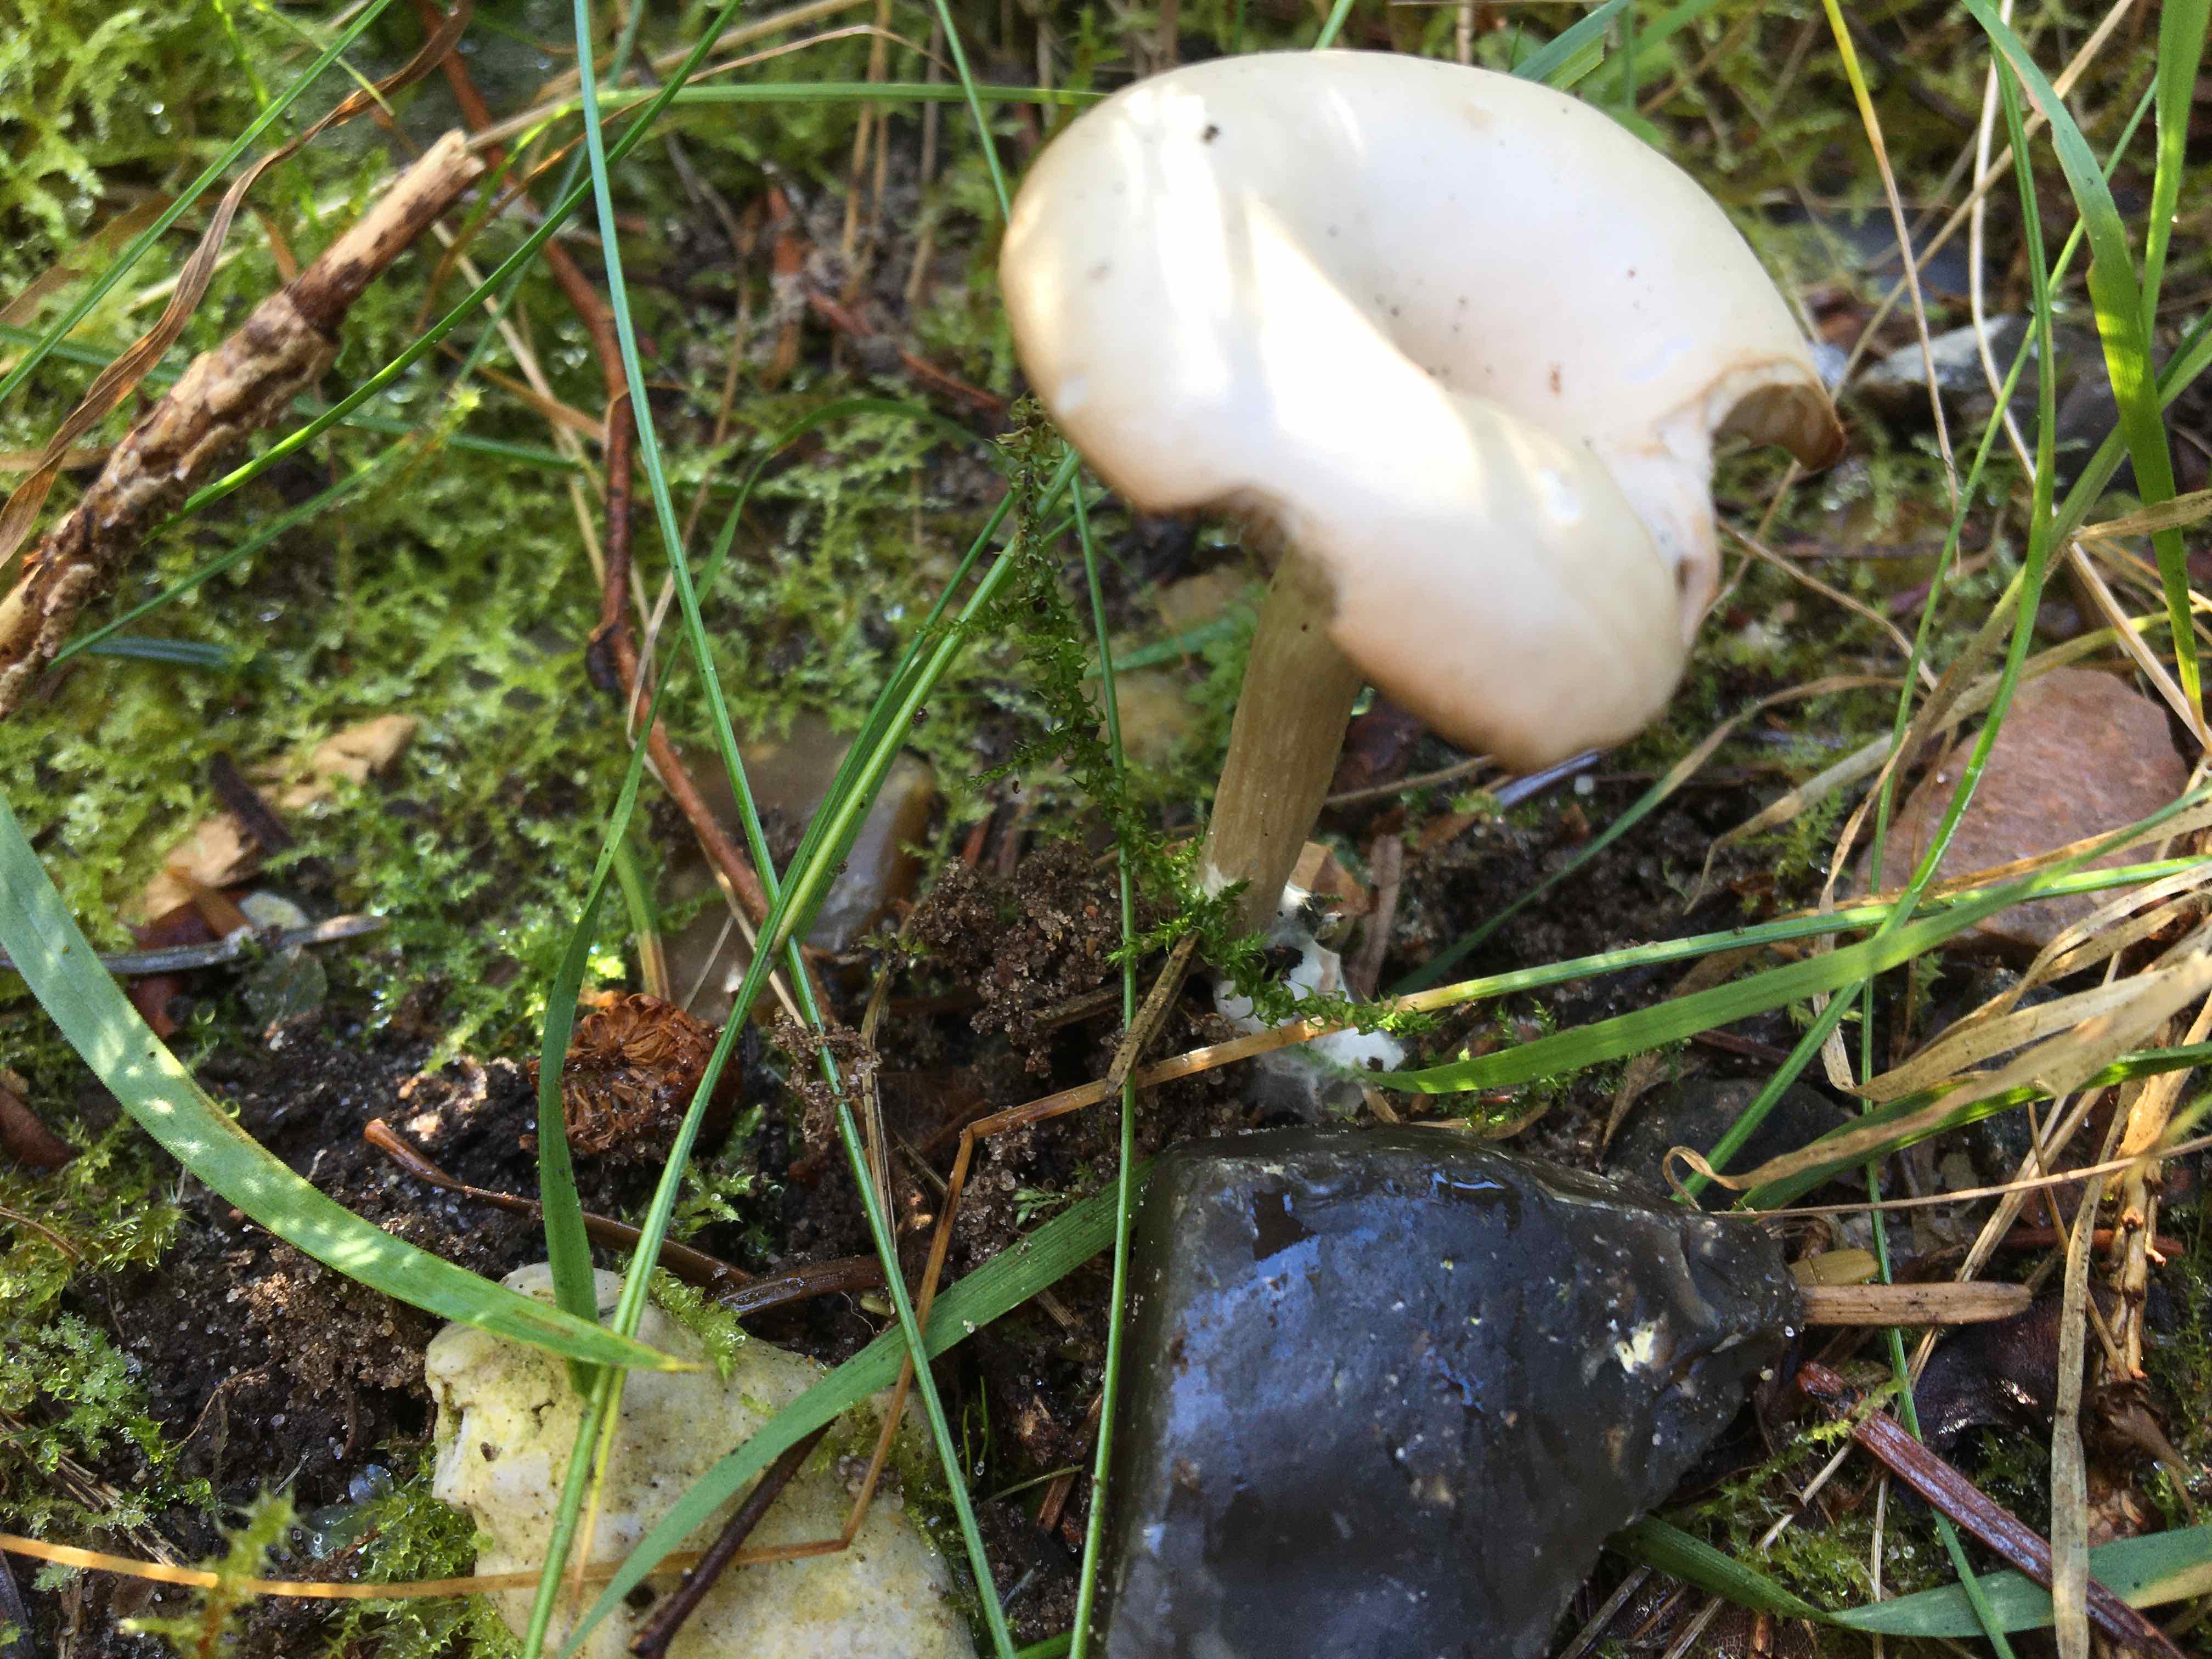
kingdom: Fungi
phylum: Basidiomycota
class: Agaricomycetes
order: Agaricales
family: Tricholomataceae
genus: Clitocybe
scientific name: Clitocybe odora
